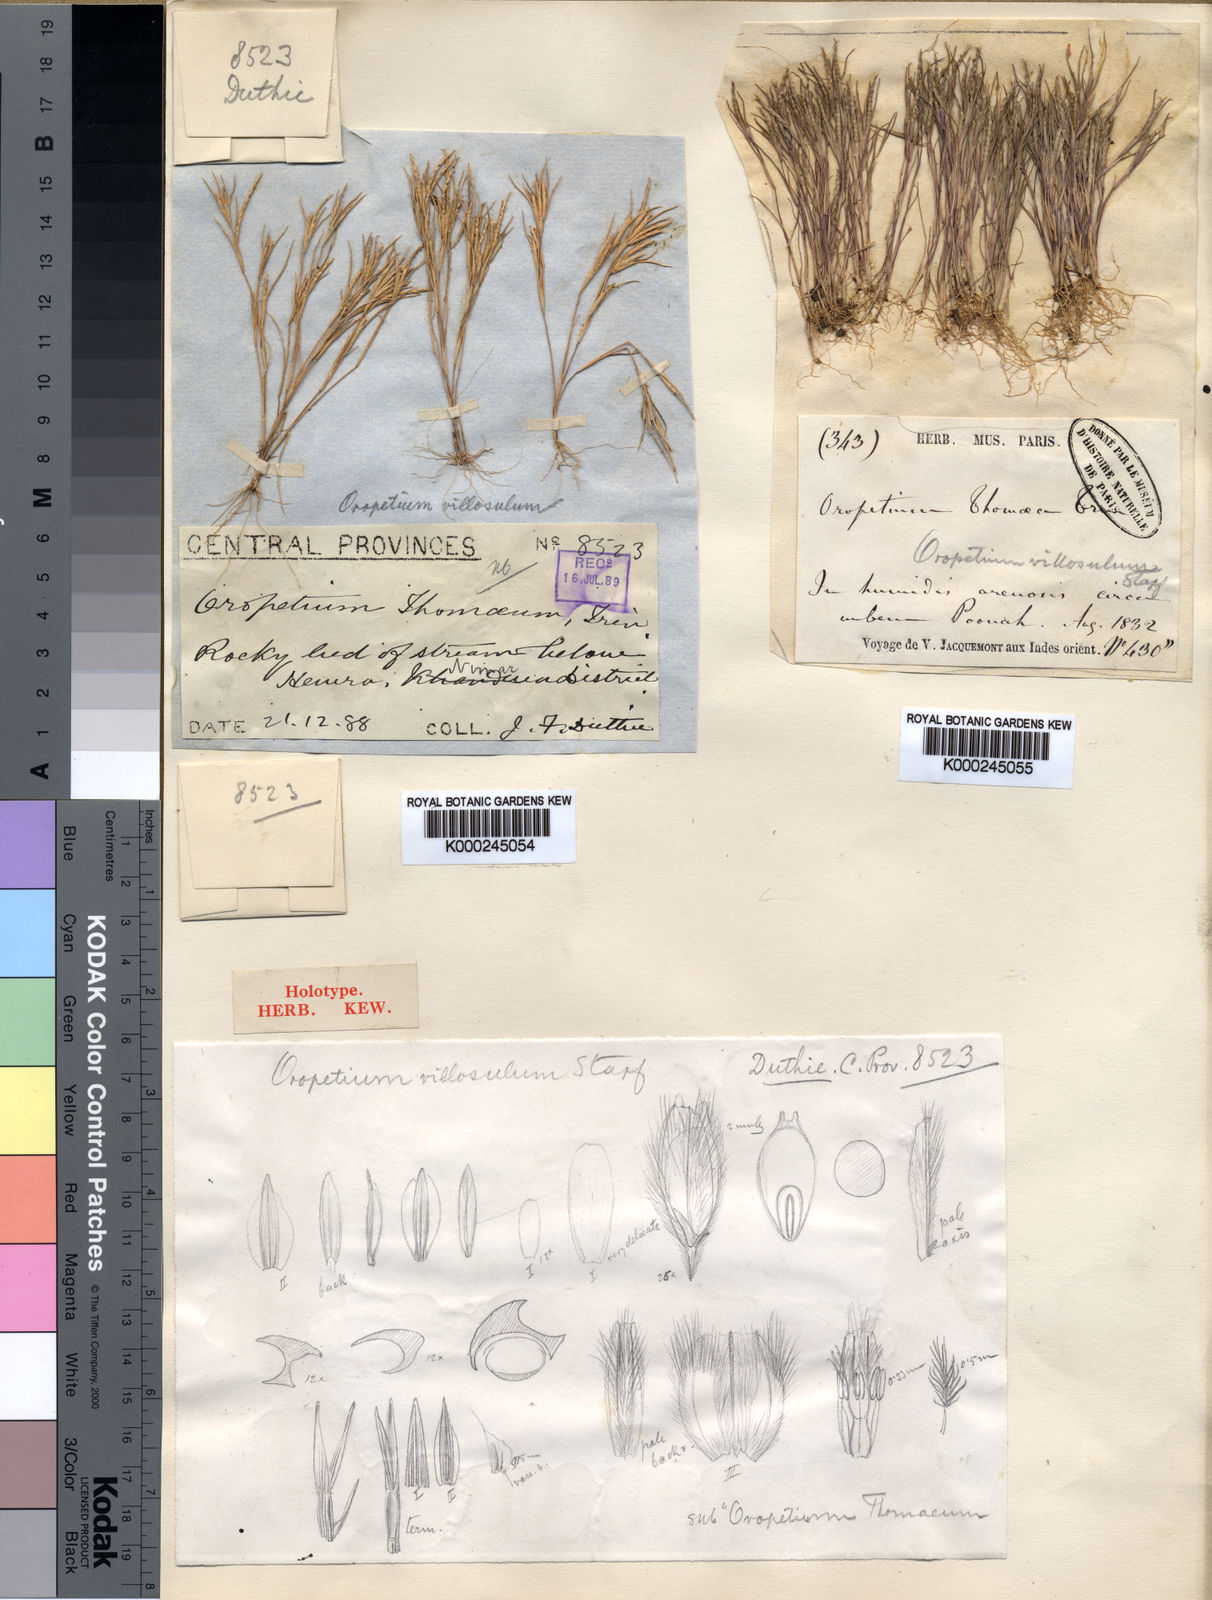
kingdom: Plantae
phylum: Tracheophyta
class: Liliopsida
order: Poales
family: Poaceae
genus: Oropetium
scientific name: Oropetium villosulum
